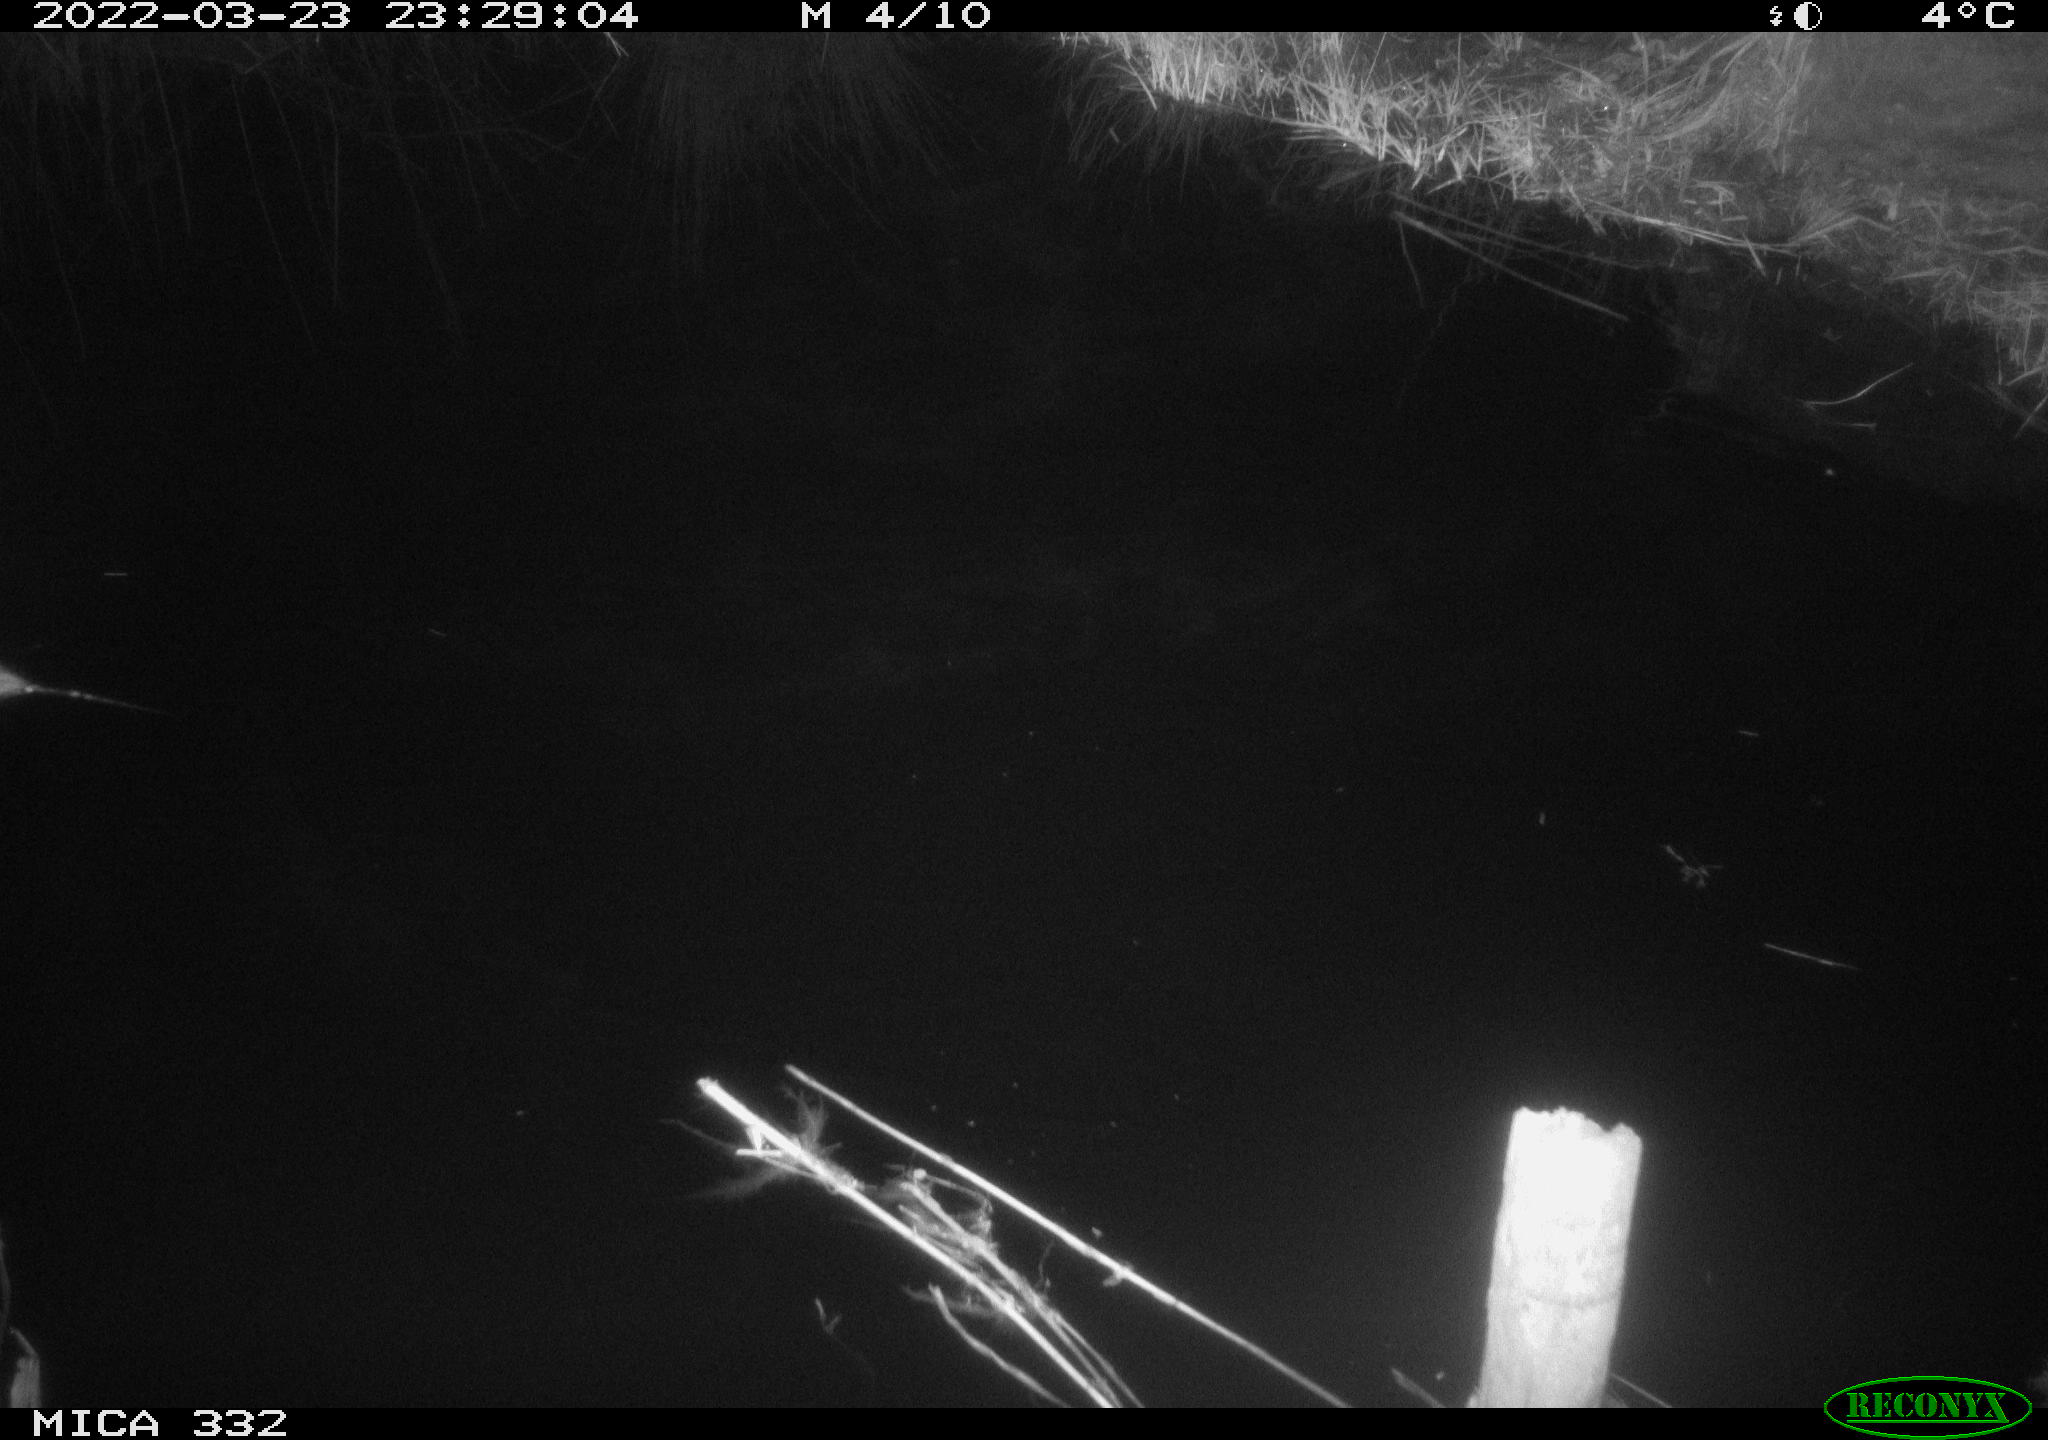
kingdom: Animalia
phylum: Chordata
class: Mammalia
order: Rodentia
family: Muridae
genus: Rattus
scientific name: Rattus norvegicus
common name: Brown rat
